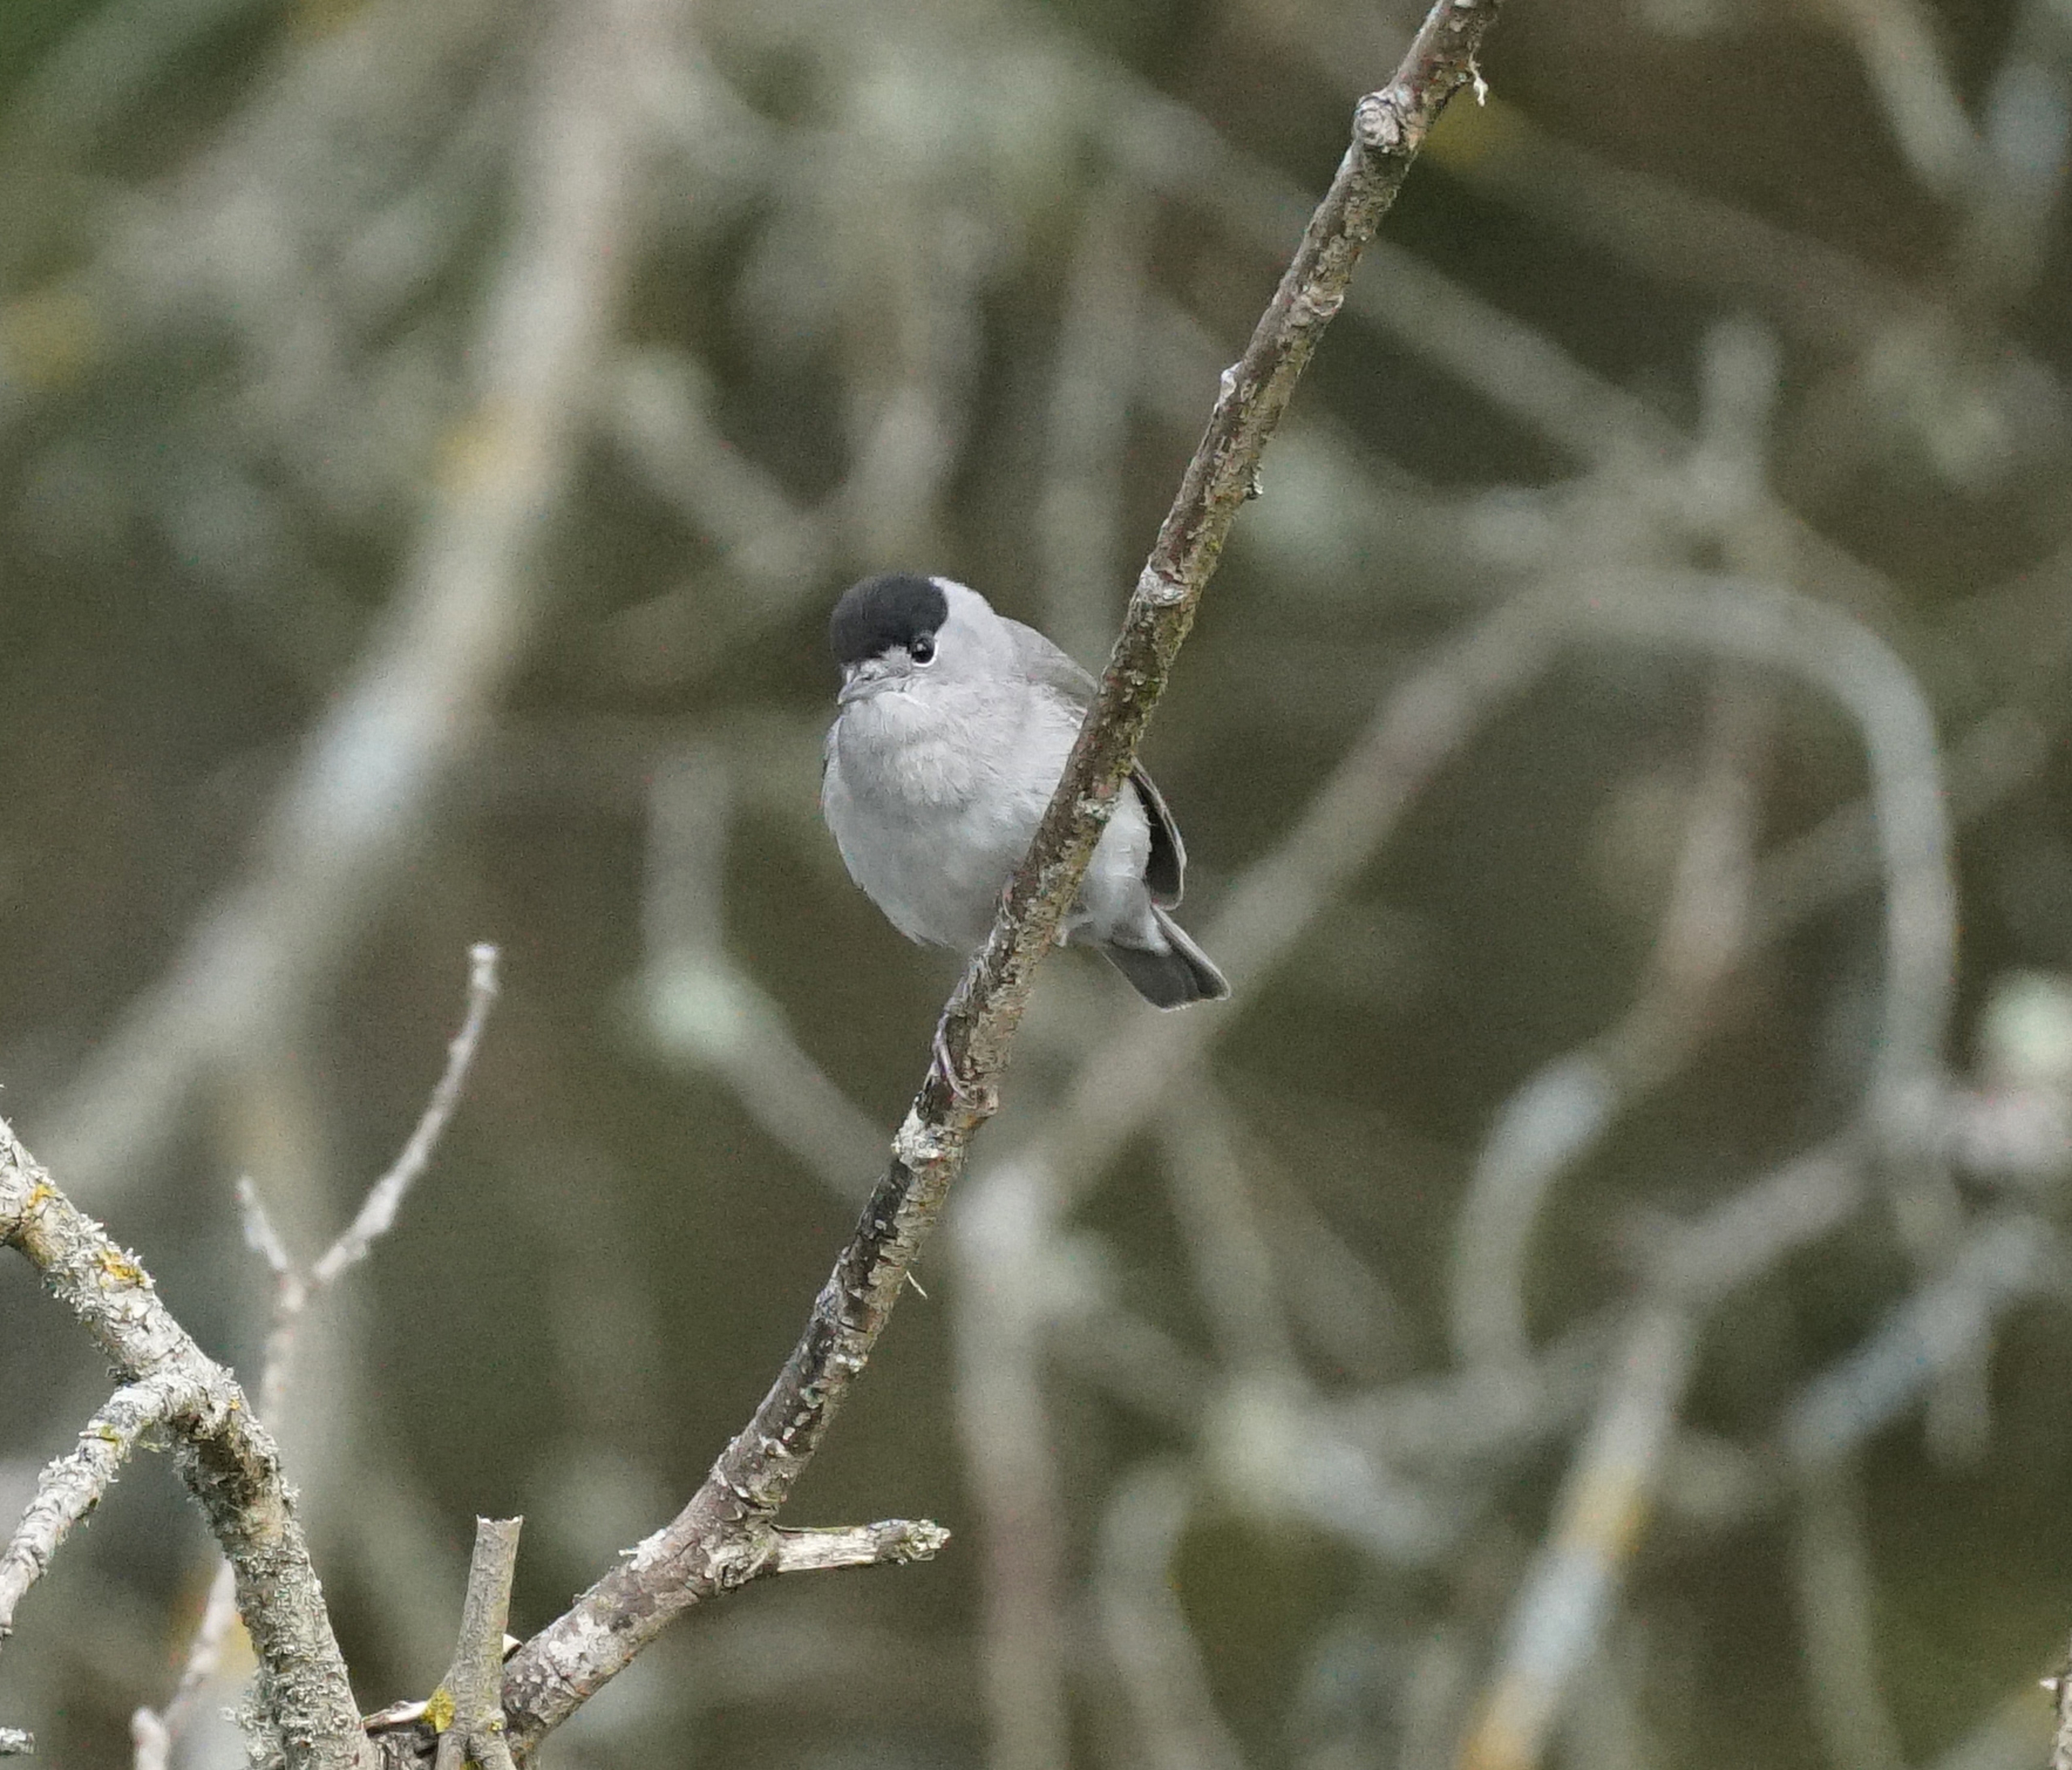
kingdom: Animalia
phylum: Chordata
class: Aves
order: Passeriformes
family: Sylviidae
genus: Sylvia
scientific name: Sylvia atricapilla
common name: Munk
